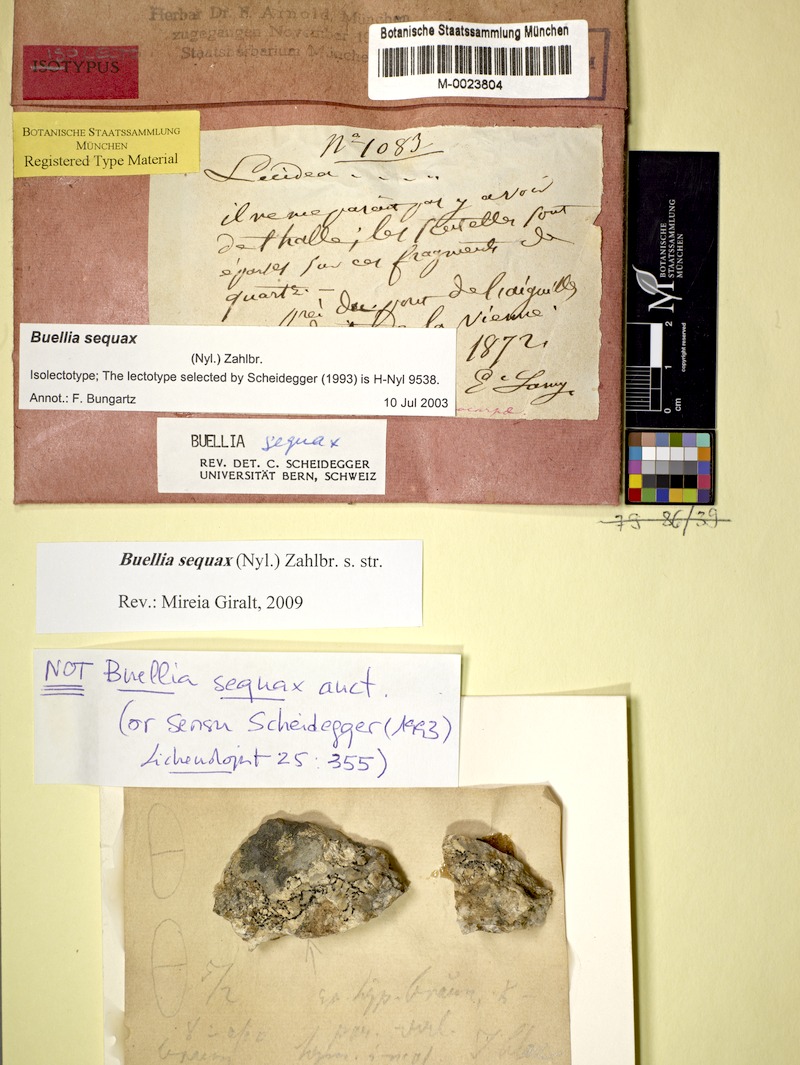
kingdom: Fungi
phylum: Ascomycota
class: Lecanoromycetes
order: Caliciales
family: Caliciaceae
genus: Buellia
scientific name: Buellia sequax
